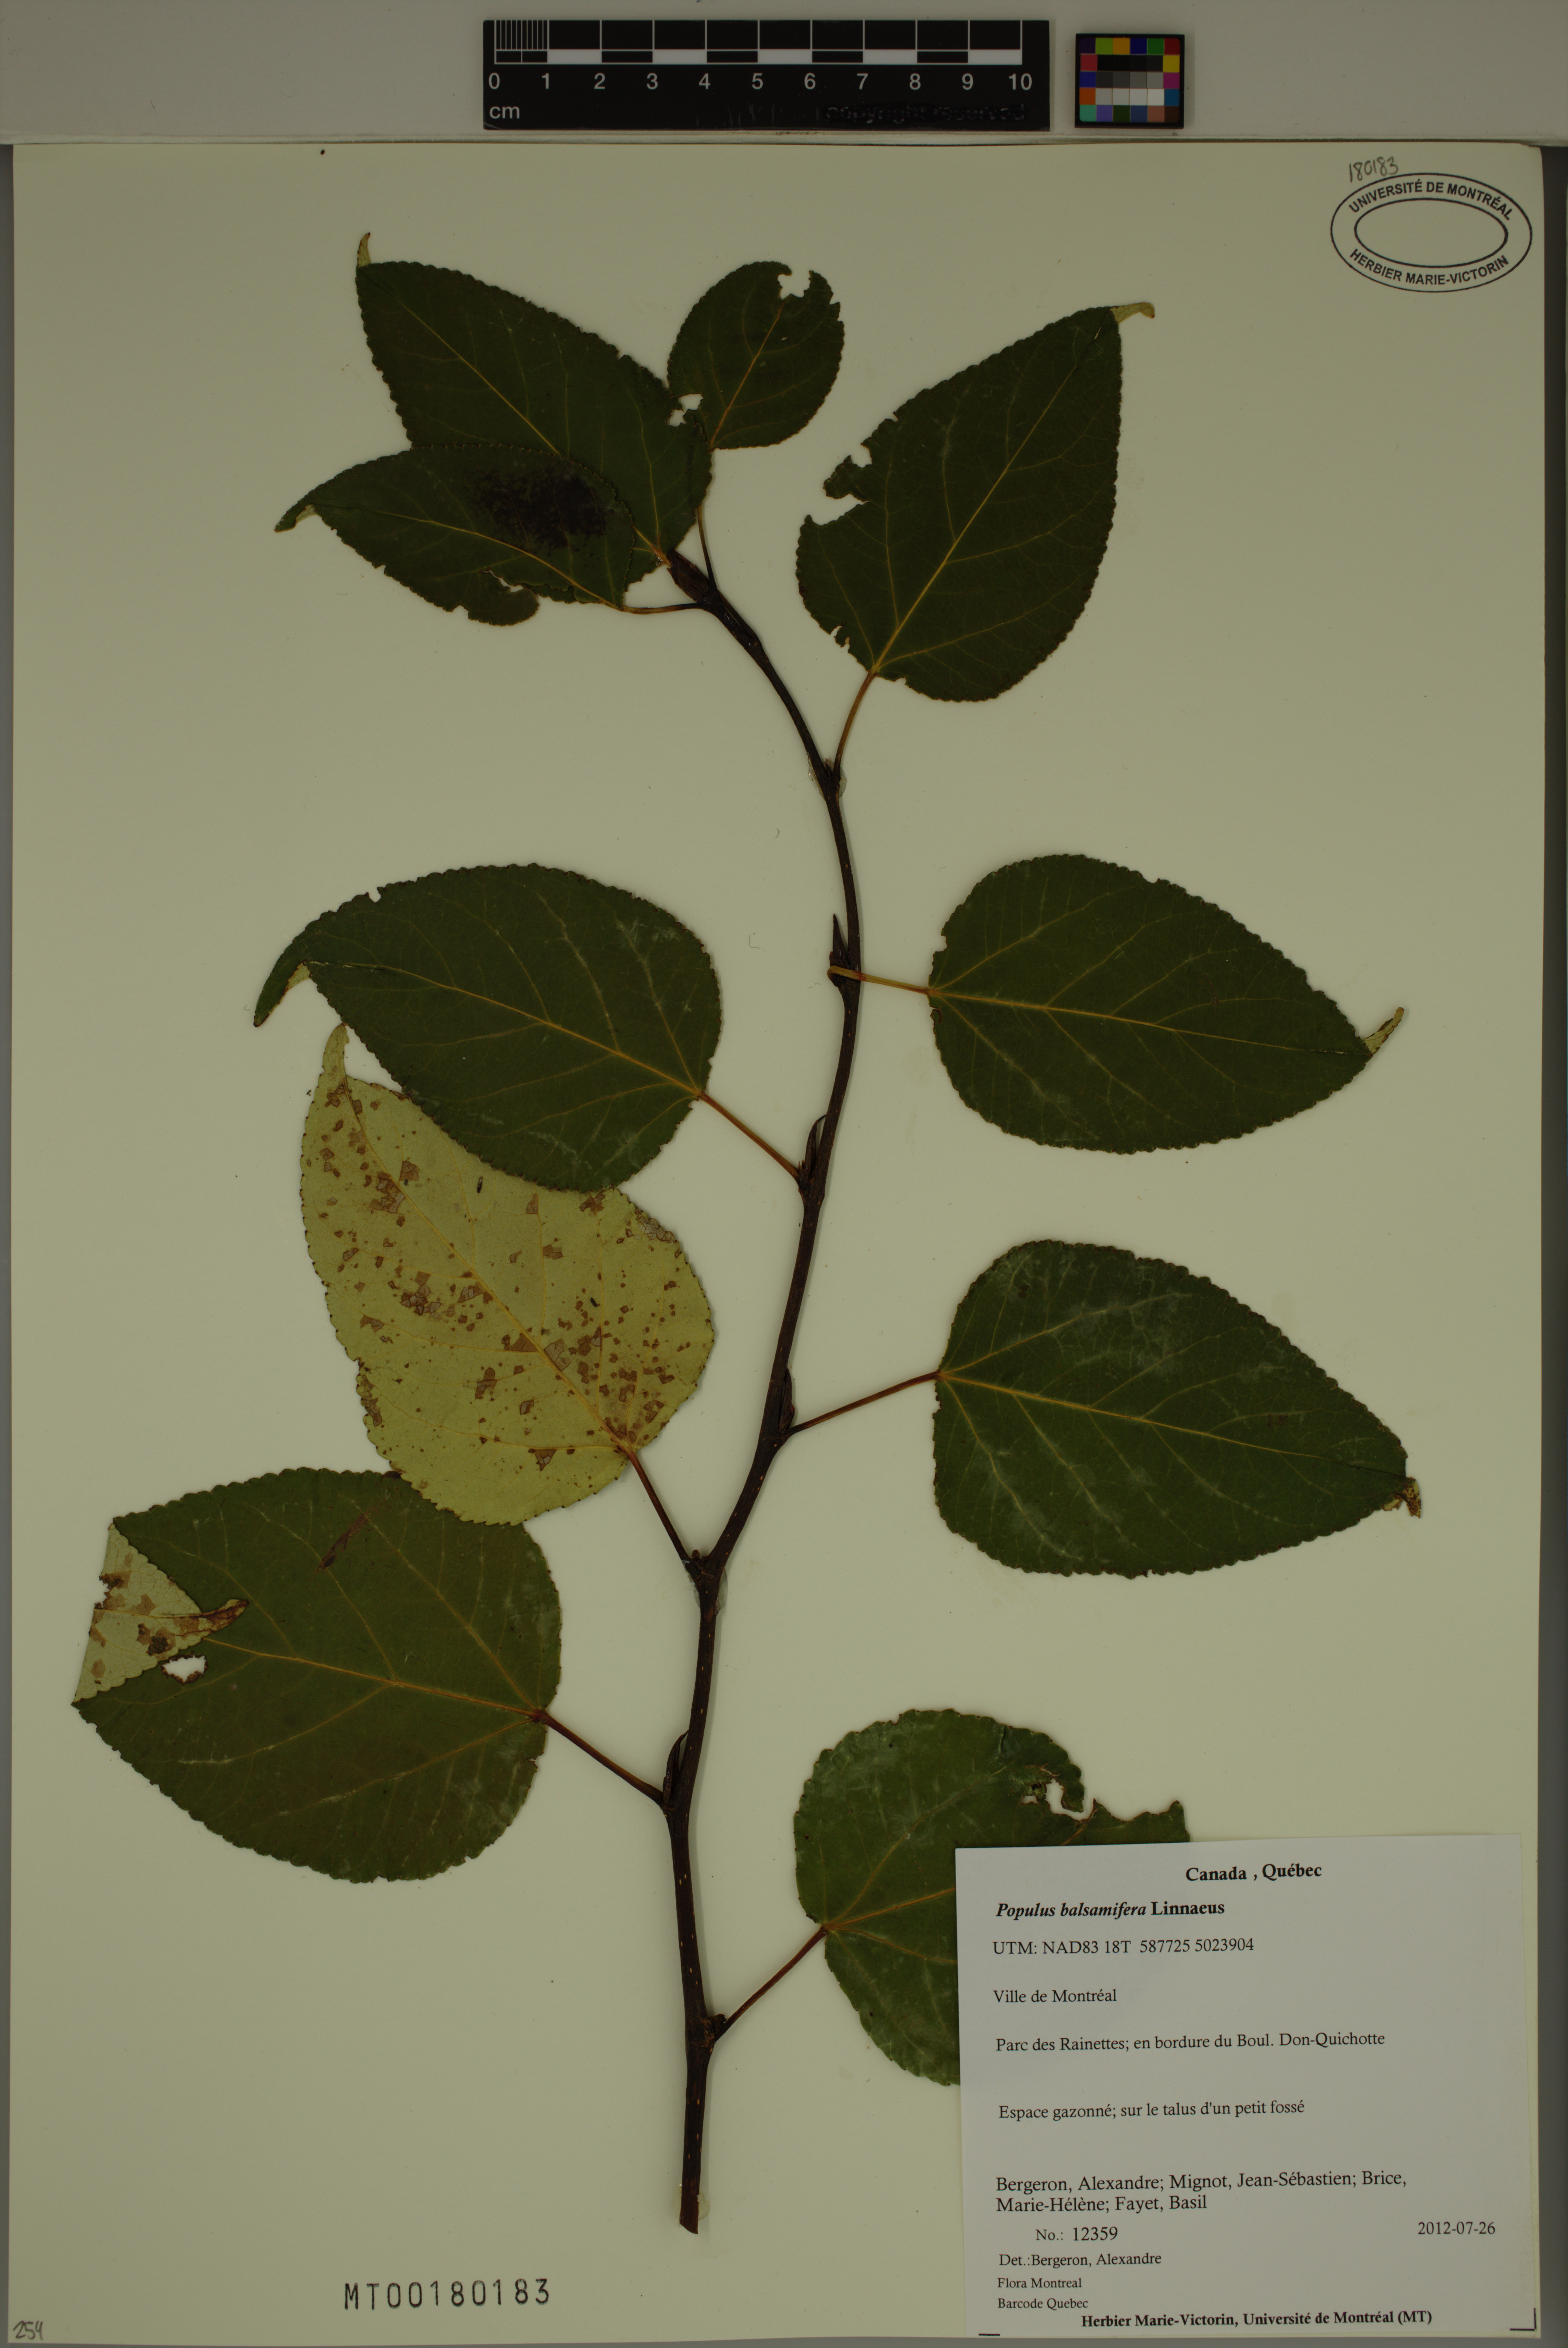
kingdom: Plantae
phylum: Tracheophyta
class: Magnoliopsida
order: Malpighiales
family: Salicaceae
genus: Populus
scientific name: Populus balsamifera
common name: Balsam poplar
